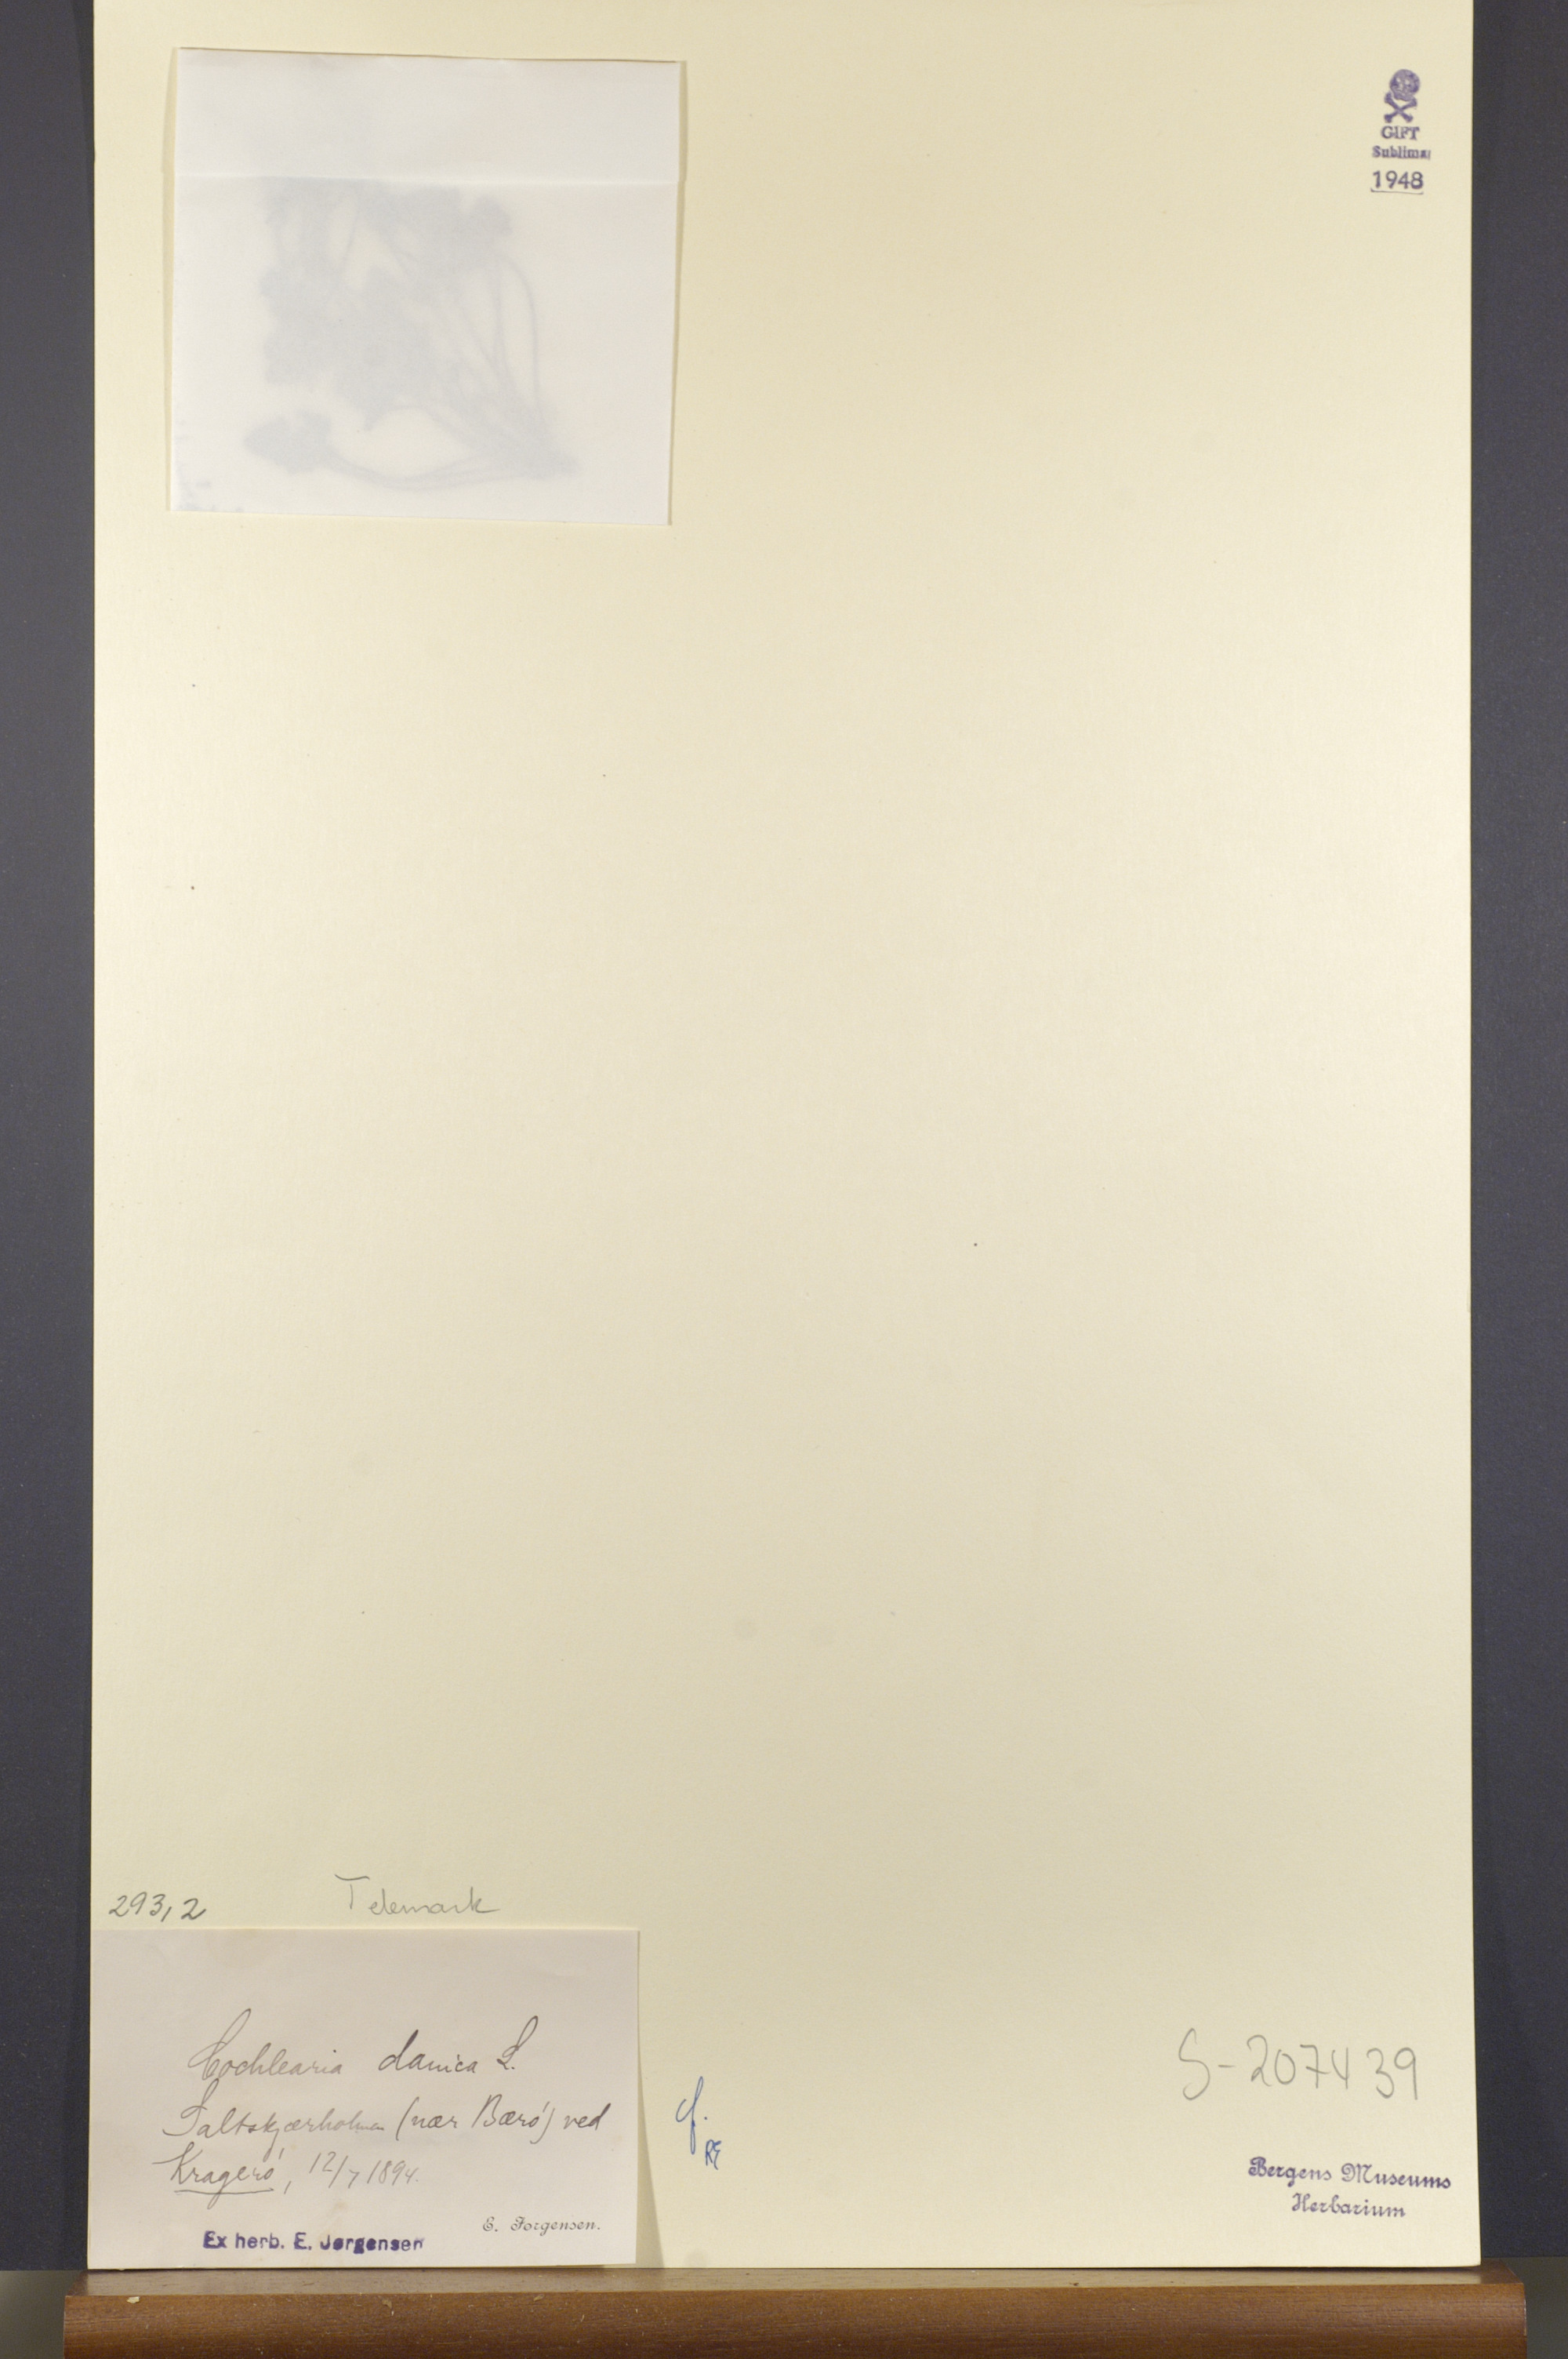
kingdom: Plantae
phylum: Tracheophyta
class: Magnoliopsida
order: Brassicales
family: Brassicaceae
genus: Cochlearia
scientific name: Cochlearia danica
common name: Early scurvygrass
